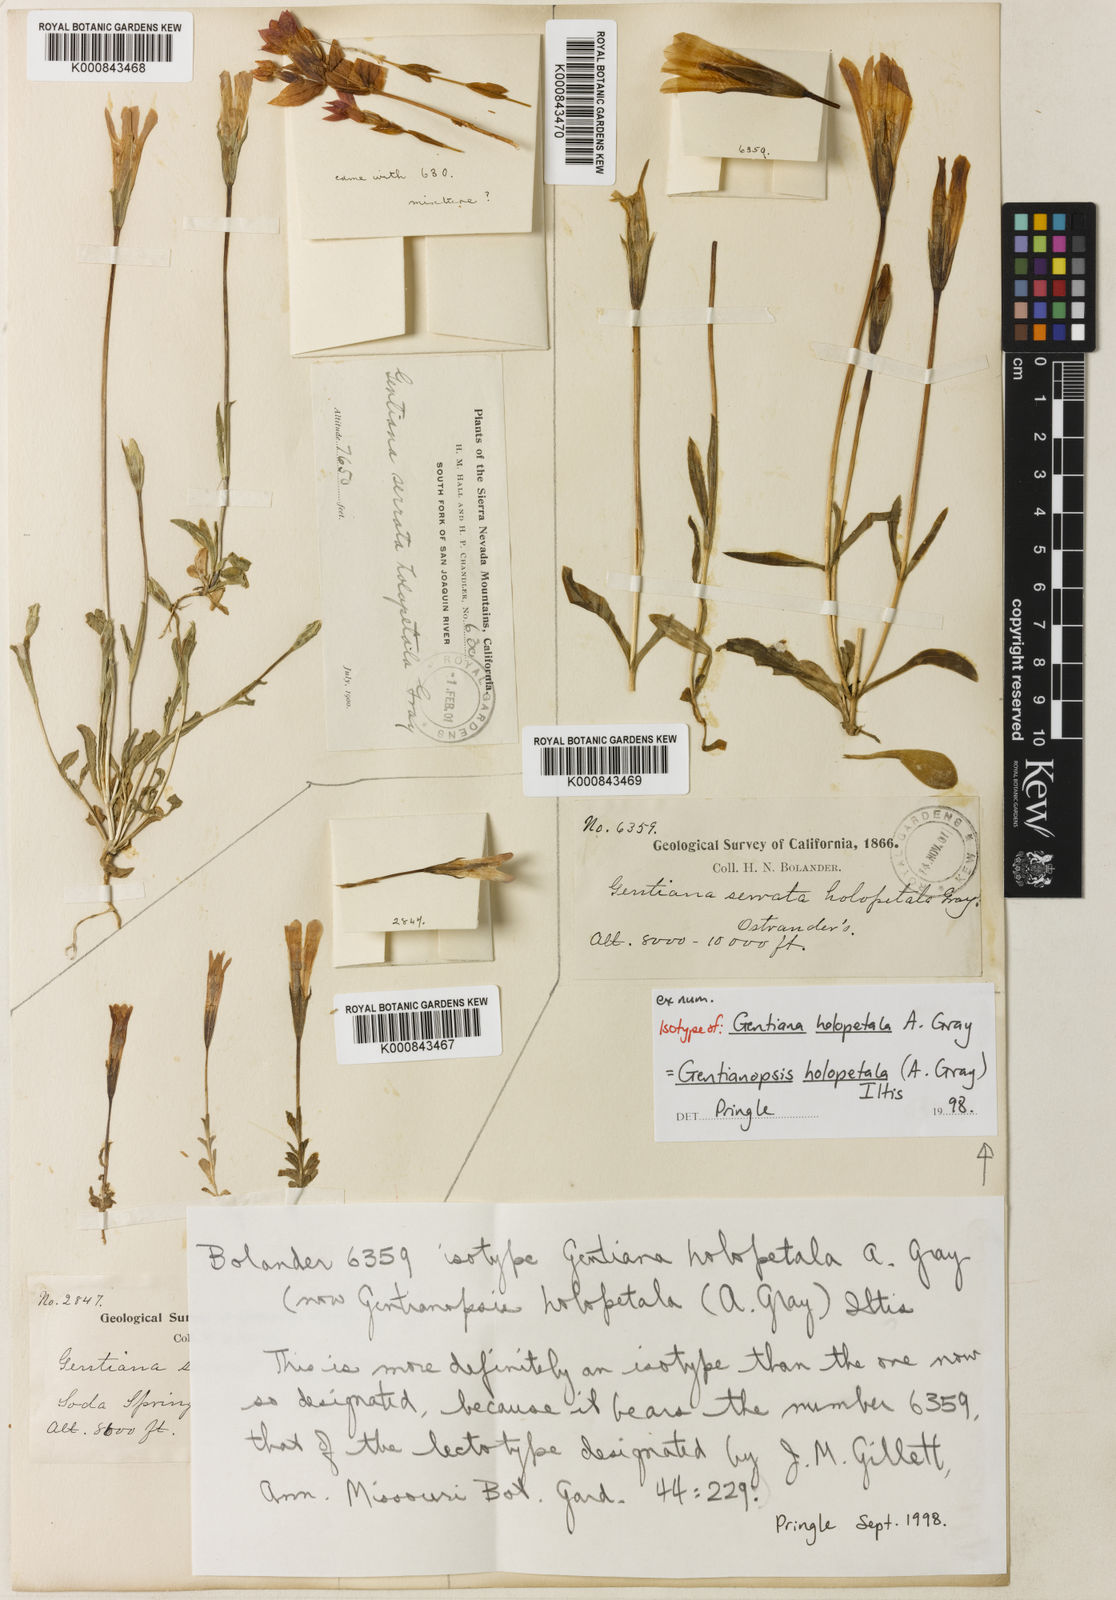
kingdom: Plantae
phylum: Tracheophyta
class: Magnoliopsida
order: Gentianales
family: Gentianaceae
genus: Gentianopsis
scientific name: Gentianopsis holopetala
